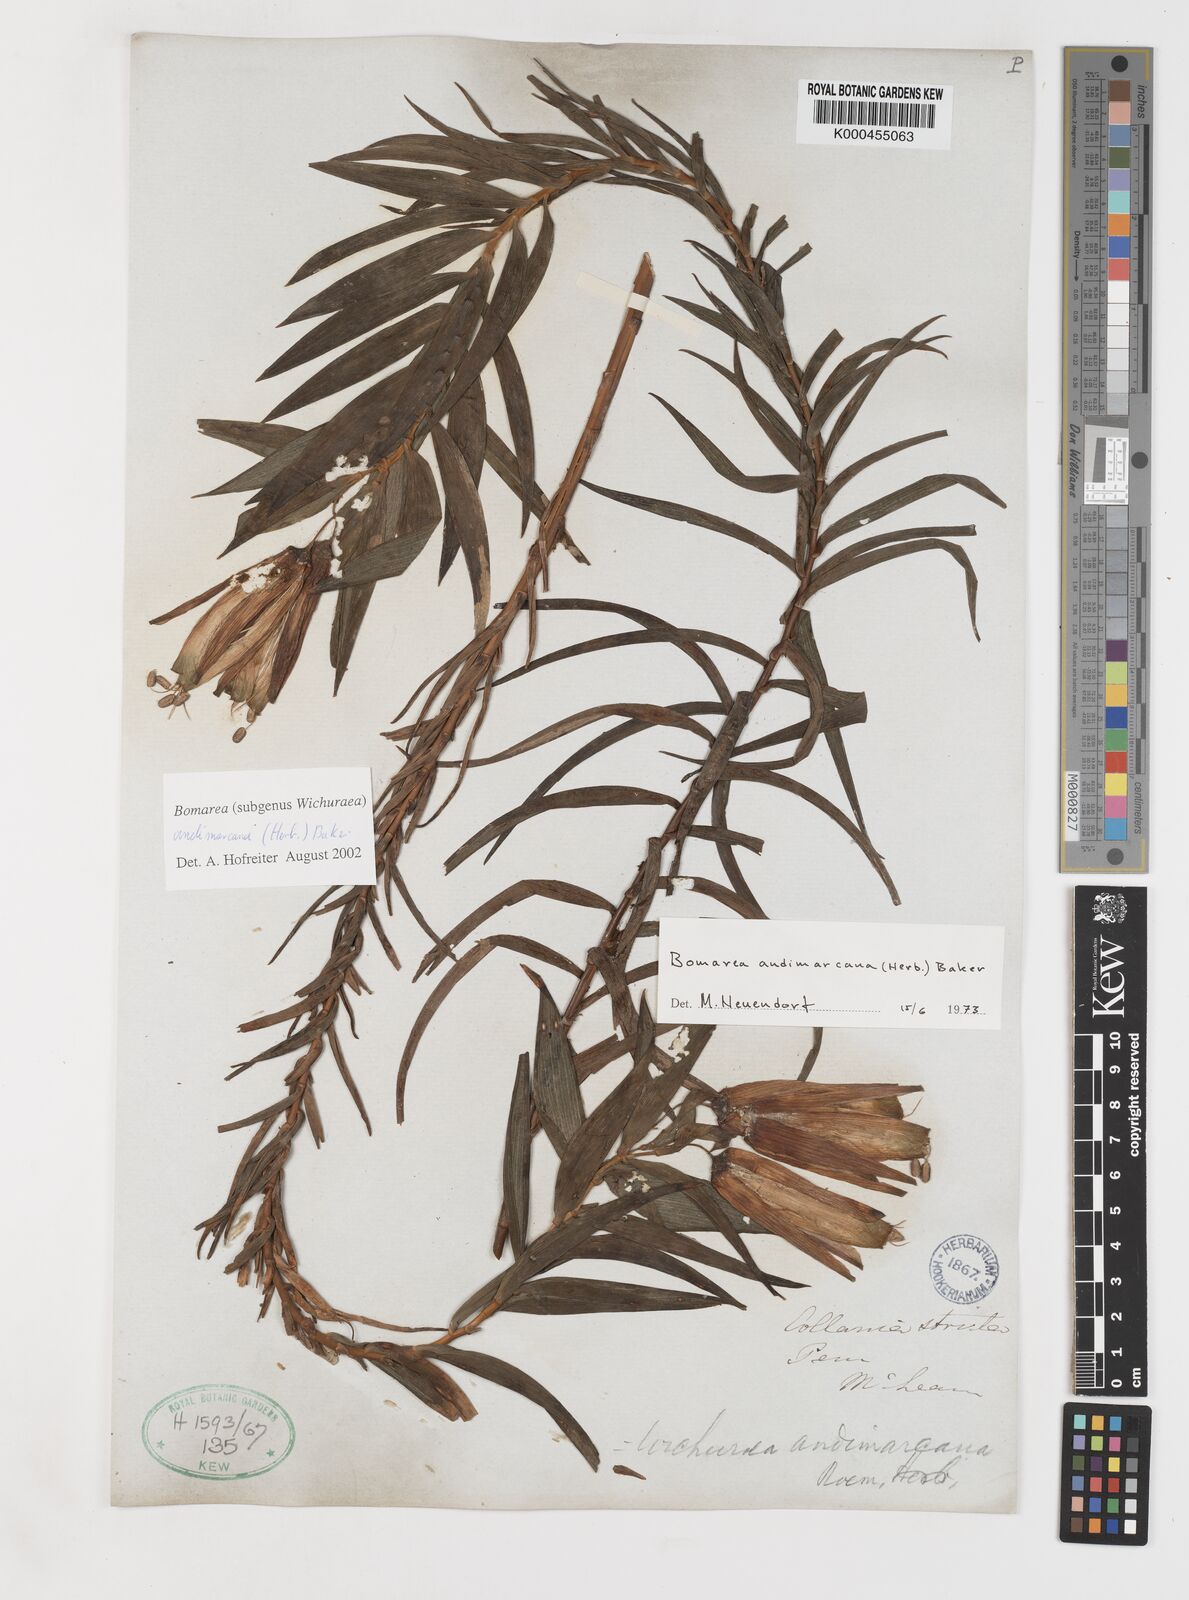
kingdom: Plantae
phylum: Tracheophyta
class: Liliopsida
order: Liliales
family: Alstroemeriaceae
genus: Bomarea
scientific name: Bomarea andimarcana
